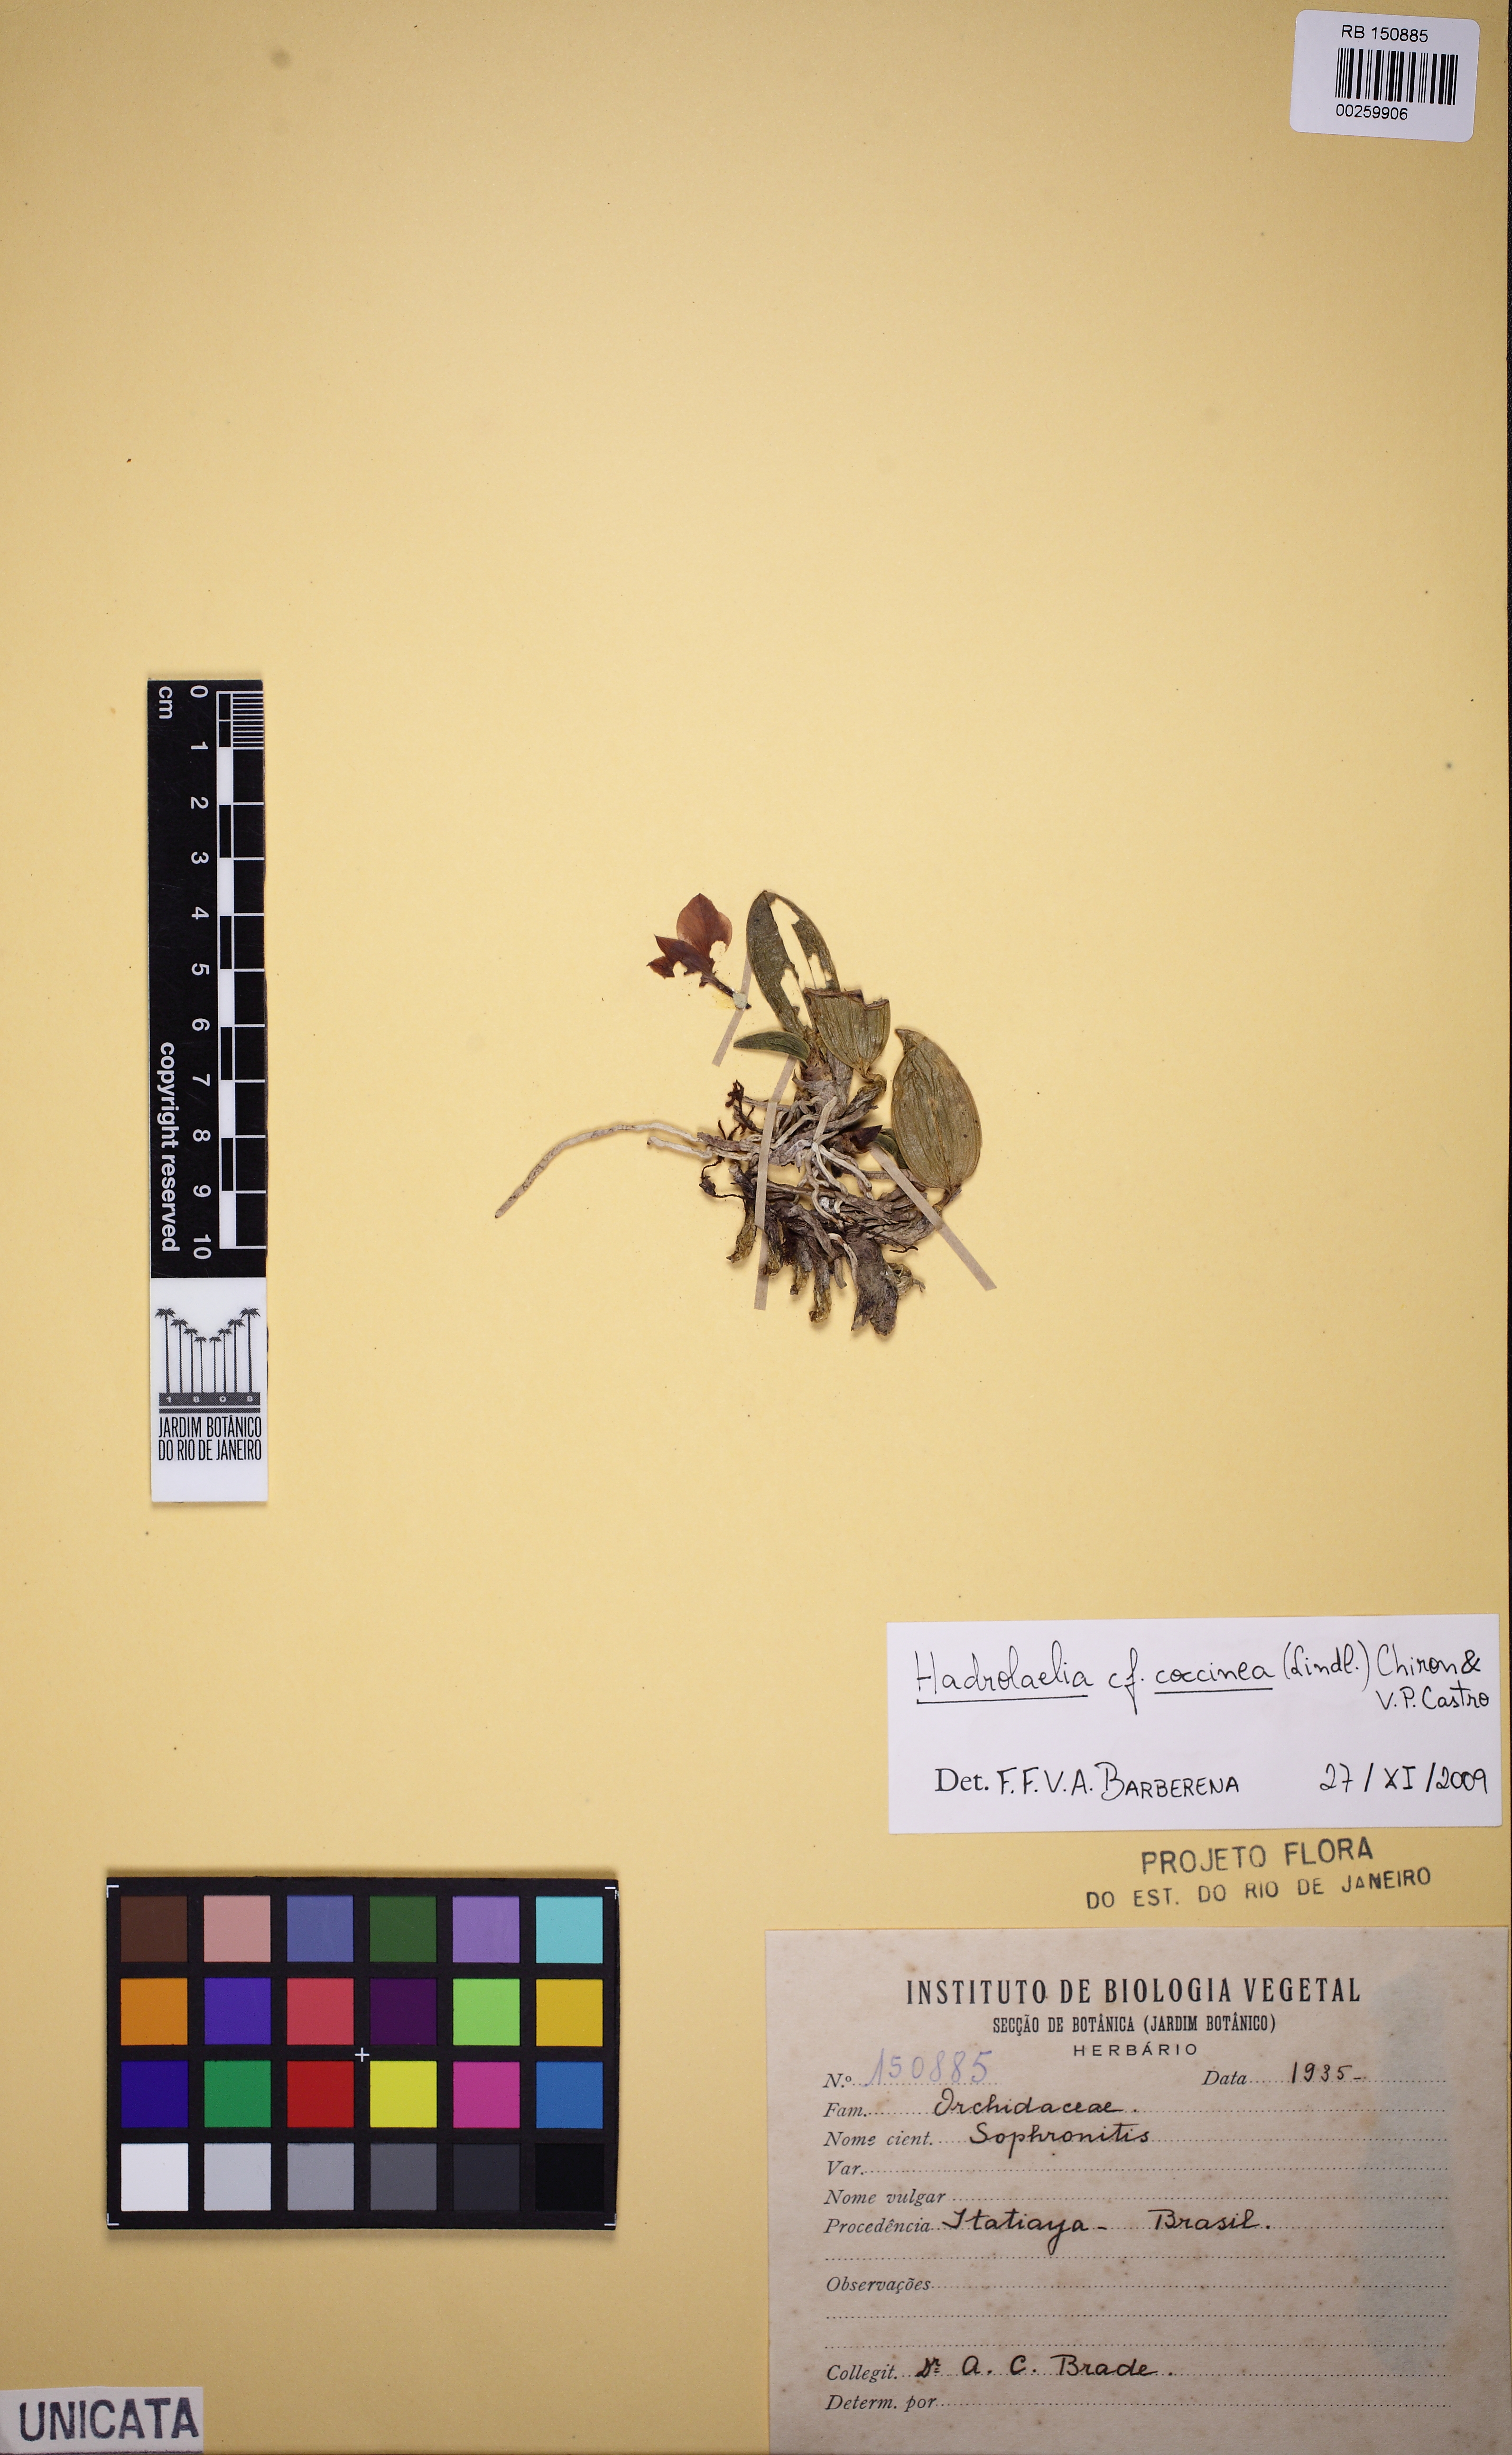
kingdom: Plantae
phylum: Tracheophyta
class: Liliopsida
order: Asparagales
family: Orchidaceae
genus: Cattleya
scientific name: Cattleya coccinea
